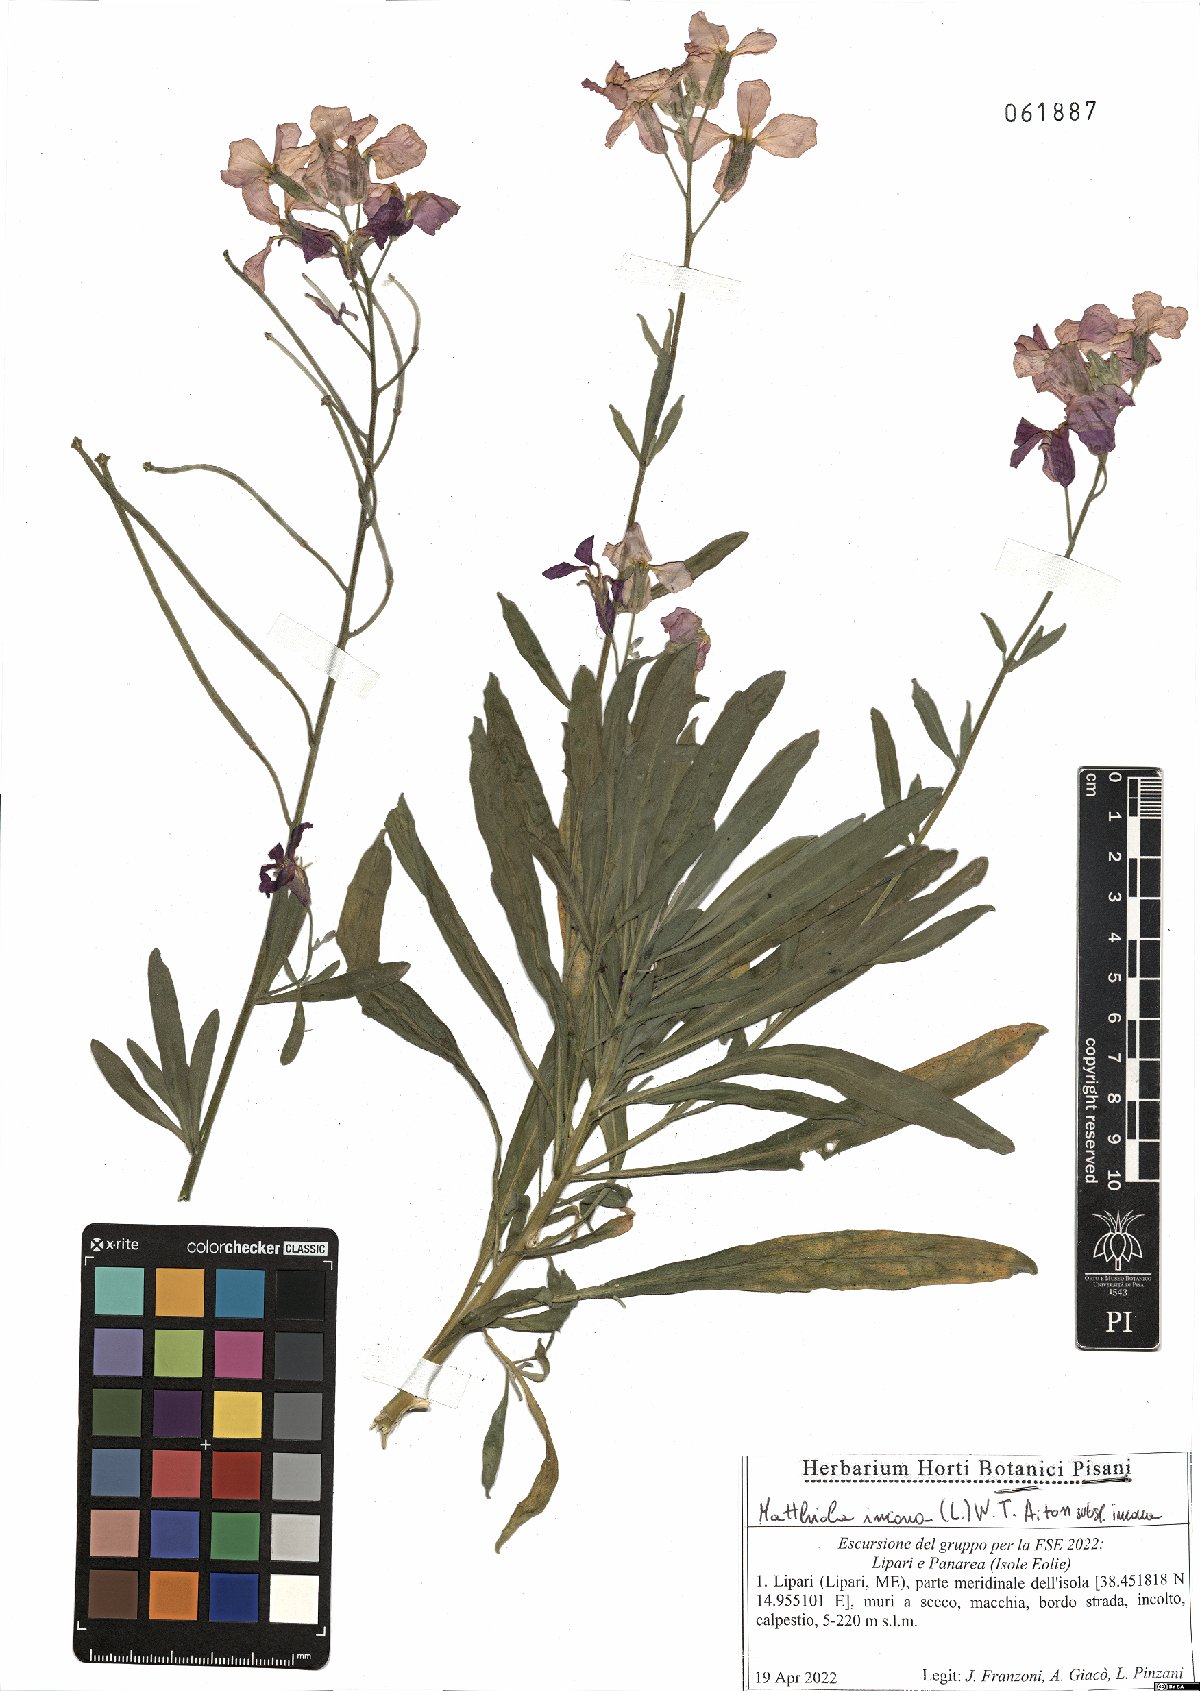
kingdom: Plantae
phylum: Tracheophyta
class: Magnoliopsida
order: Brassicales
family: Brassicaceae
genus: Matthiola
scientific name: Matthiola incana
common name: Hoary stock
